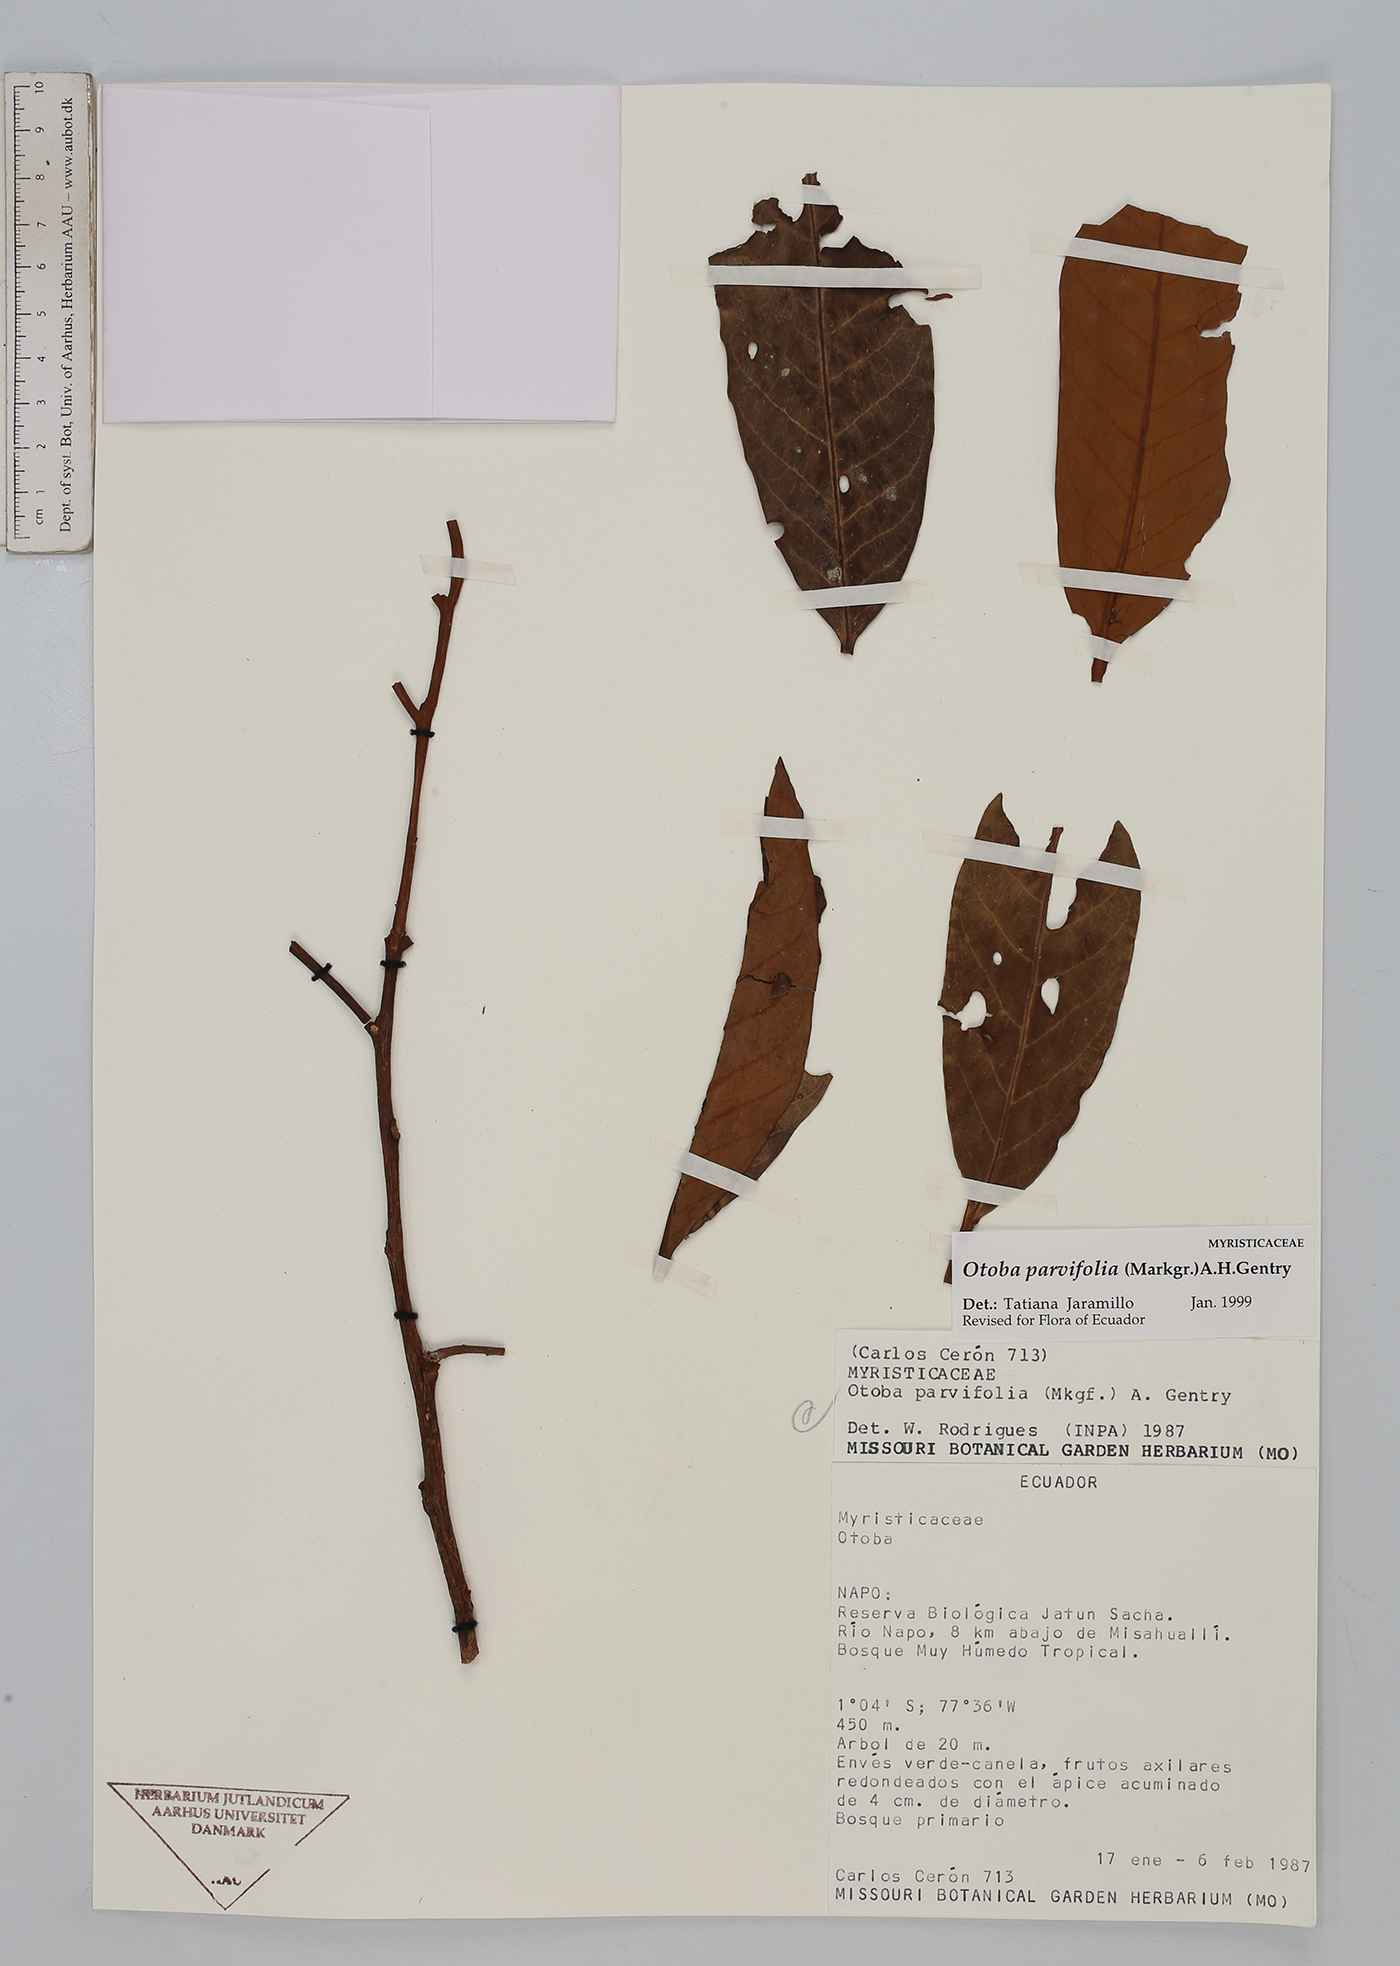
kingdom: Plantae
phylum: Tracheophyta
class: Magnoliopsida
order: Magnoliales
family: Myristicaceae
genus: Otoba
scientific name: Otoba parvifolia
